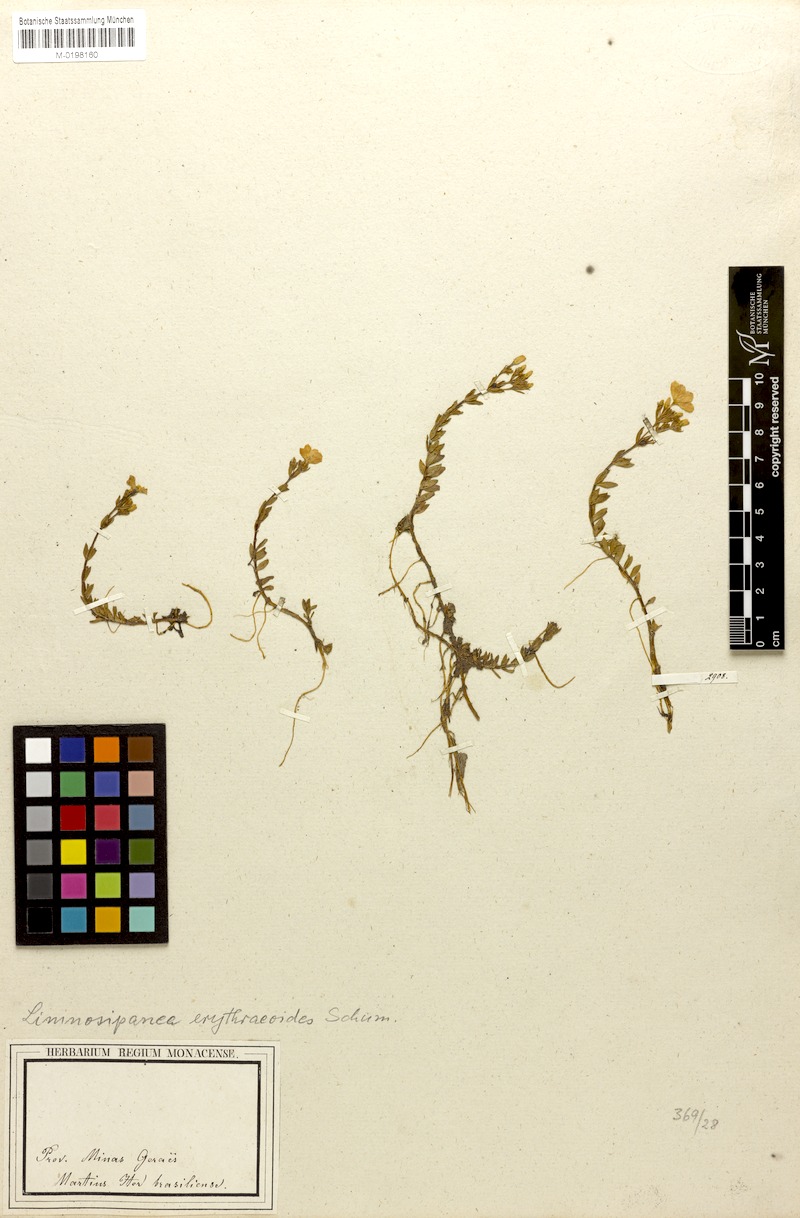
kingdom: Plantae
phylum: Tracheophyta
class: Magnoliopsida
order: Gentianales
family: Rubiaceae
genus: Limnosipanea
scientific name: Limnosipanea erythraeoides
